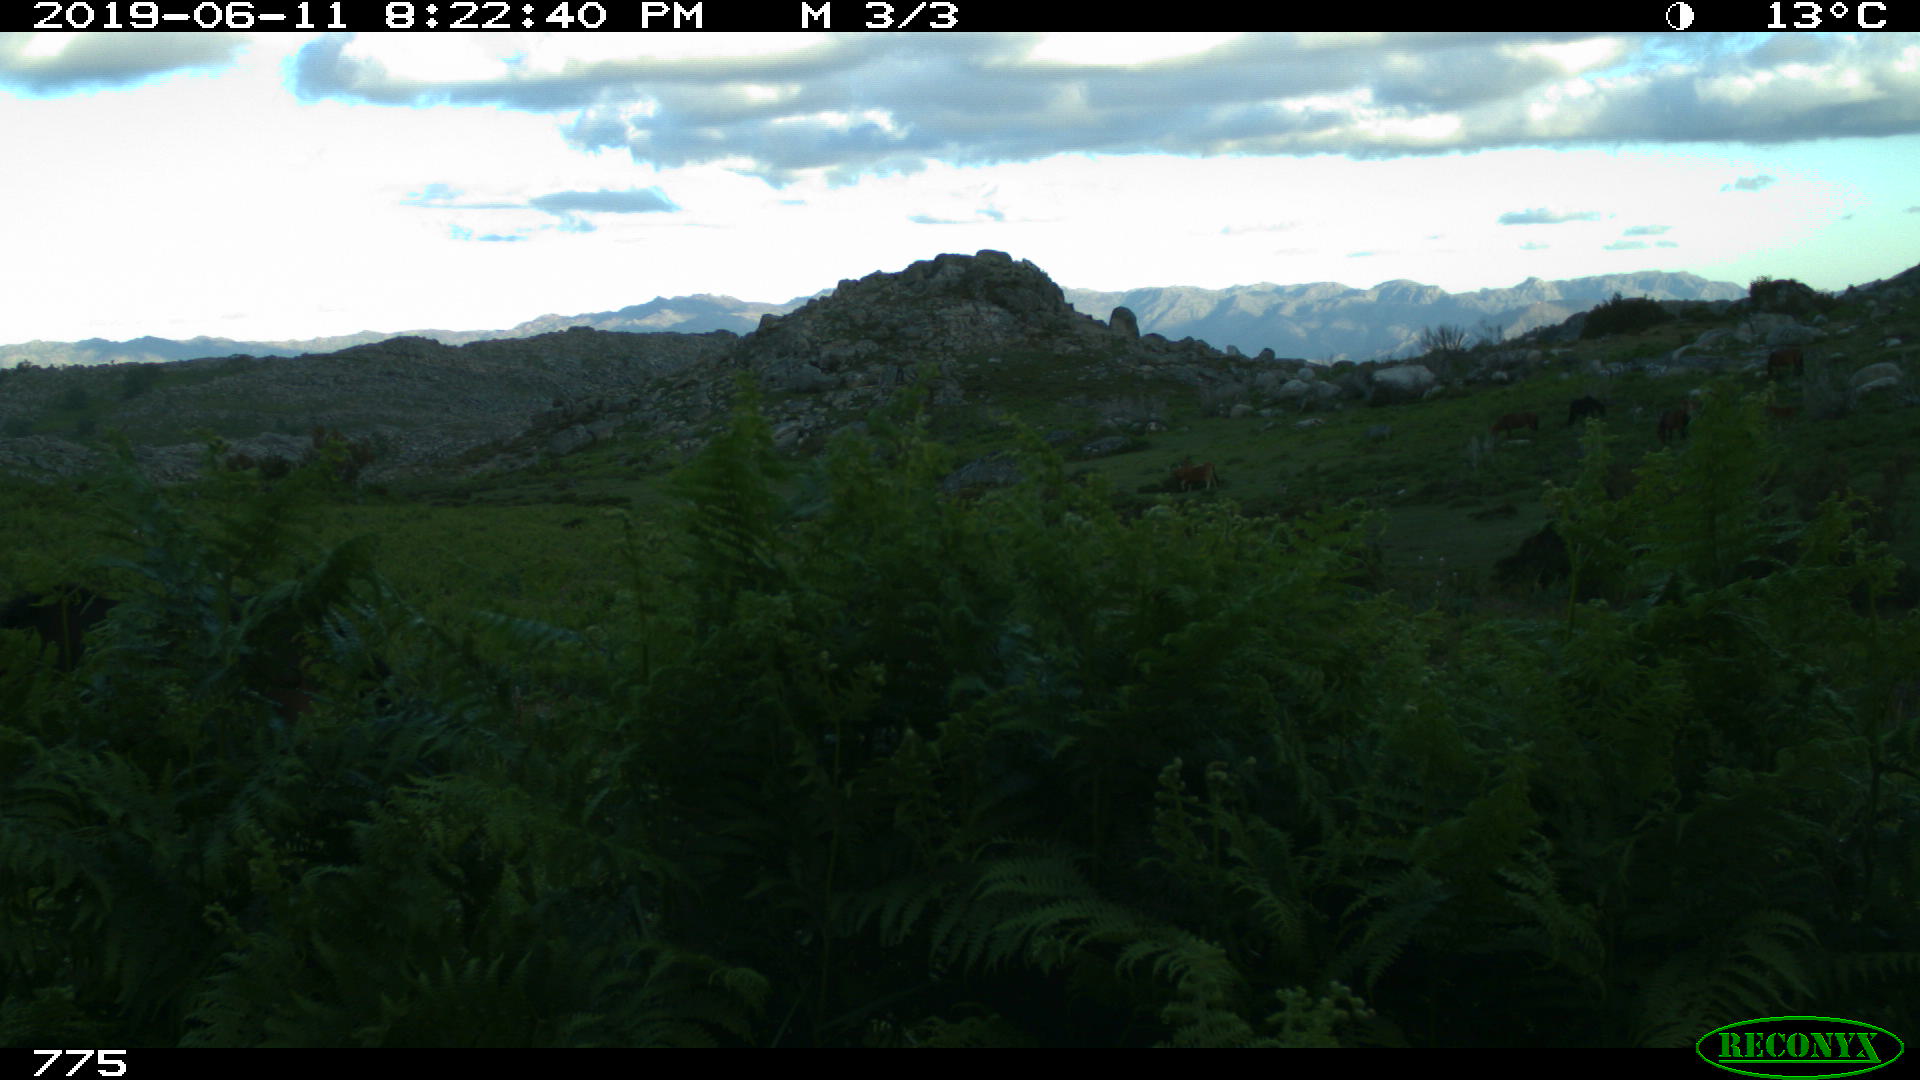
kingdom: Animalia
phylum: Chordata
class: Mammalia
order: Perissodactyla
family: Equidae
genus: Equus
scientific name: Equus caballus
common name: Horse
